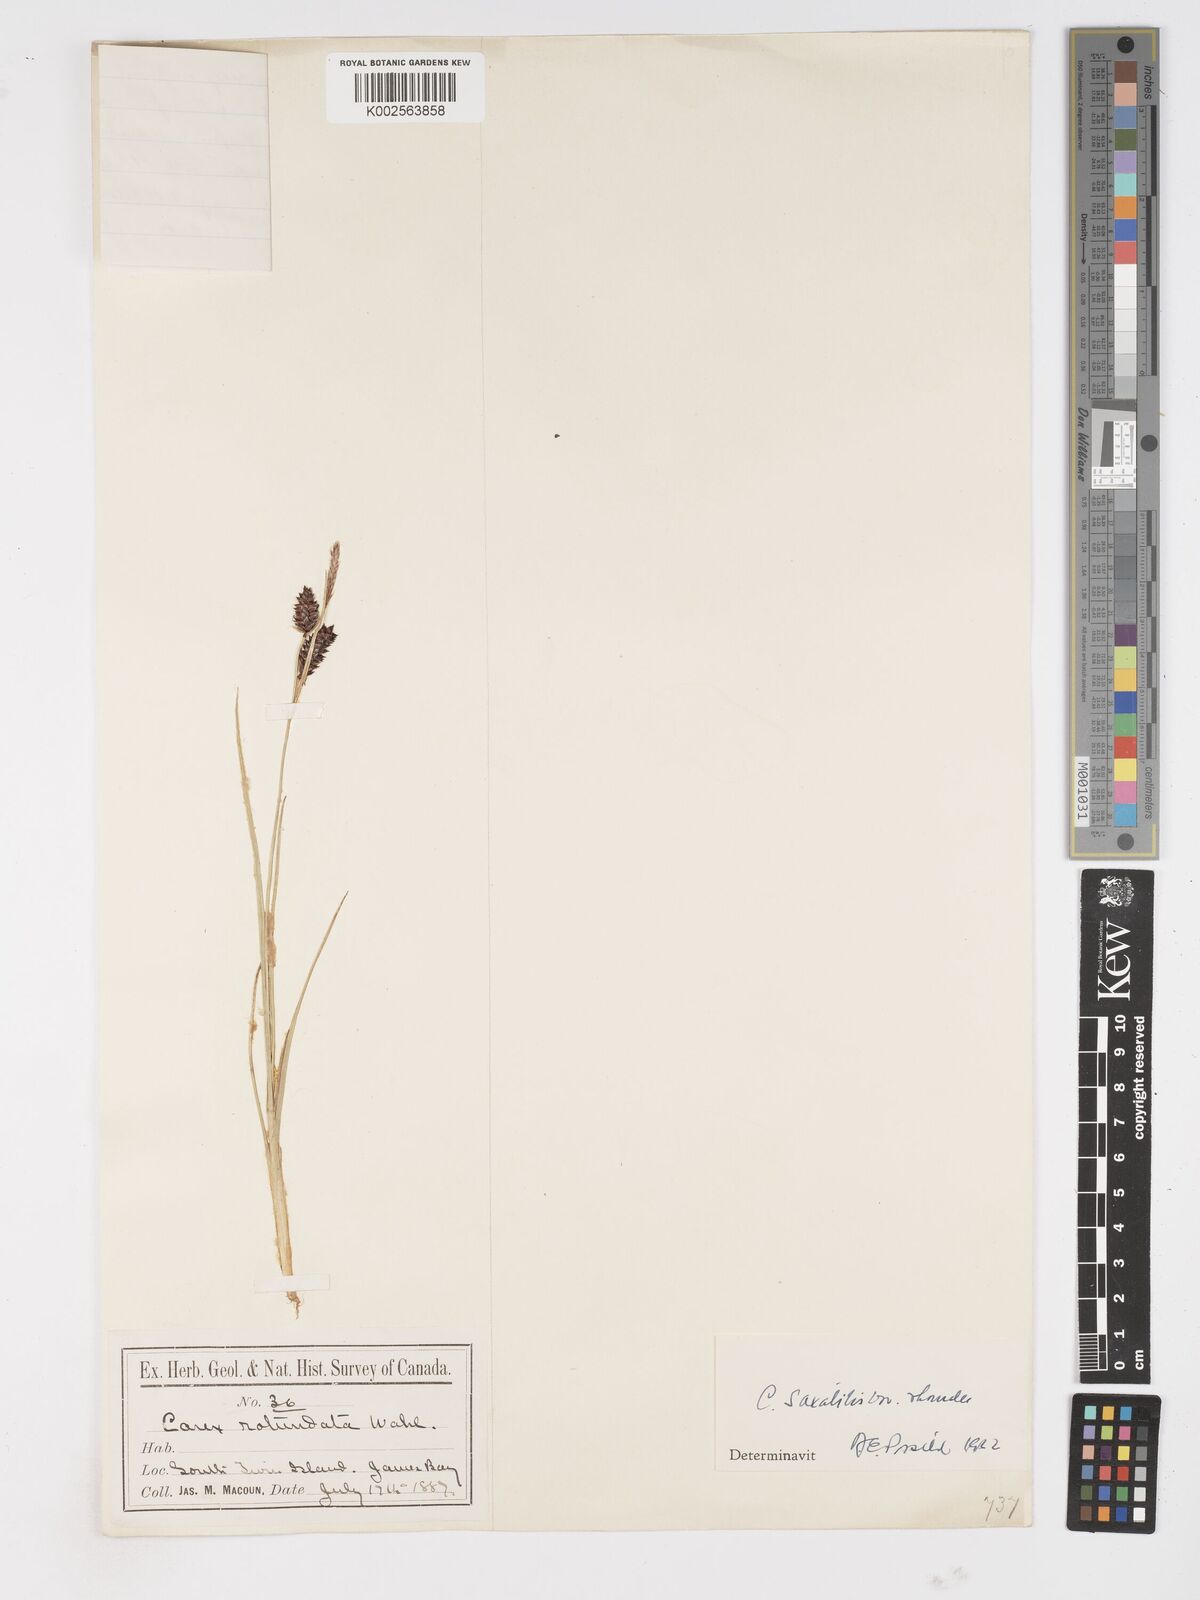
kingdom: Plantae
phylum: Tracheophyta
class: Liliopsida
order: Poales
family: Cyperaceae
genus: Carex
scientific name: Carex rotundata
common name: Round-fruited sedge
